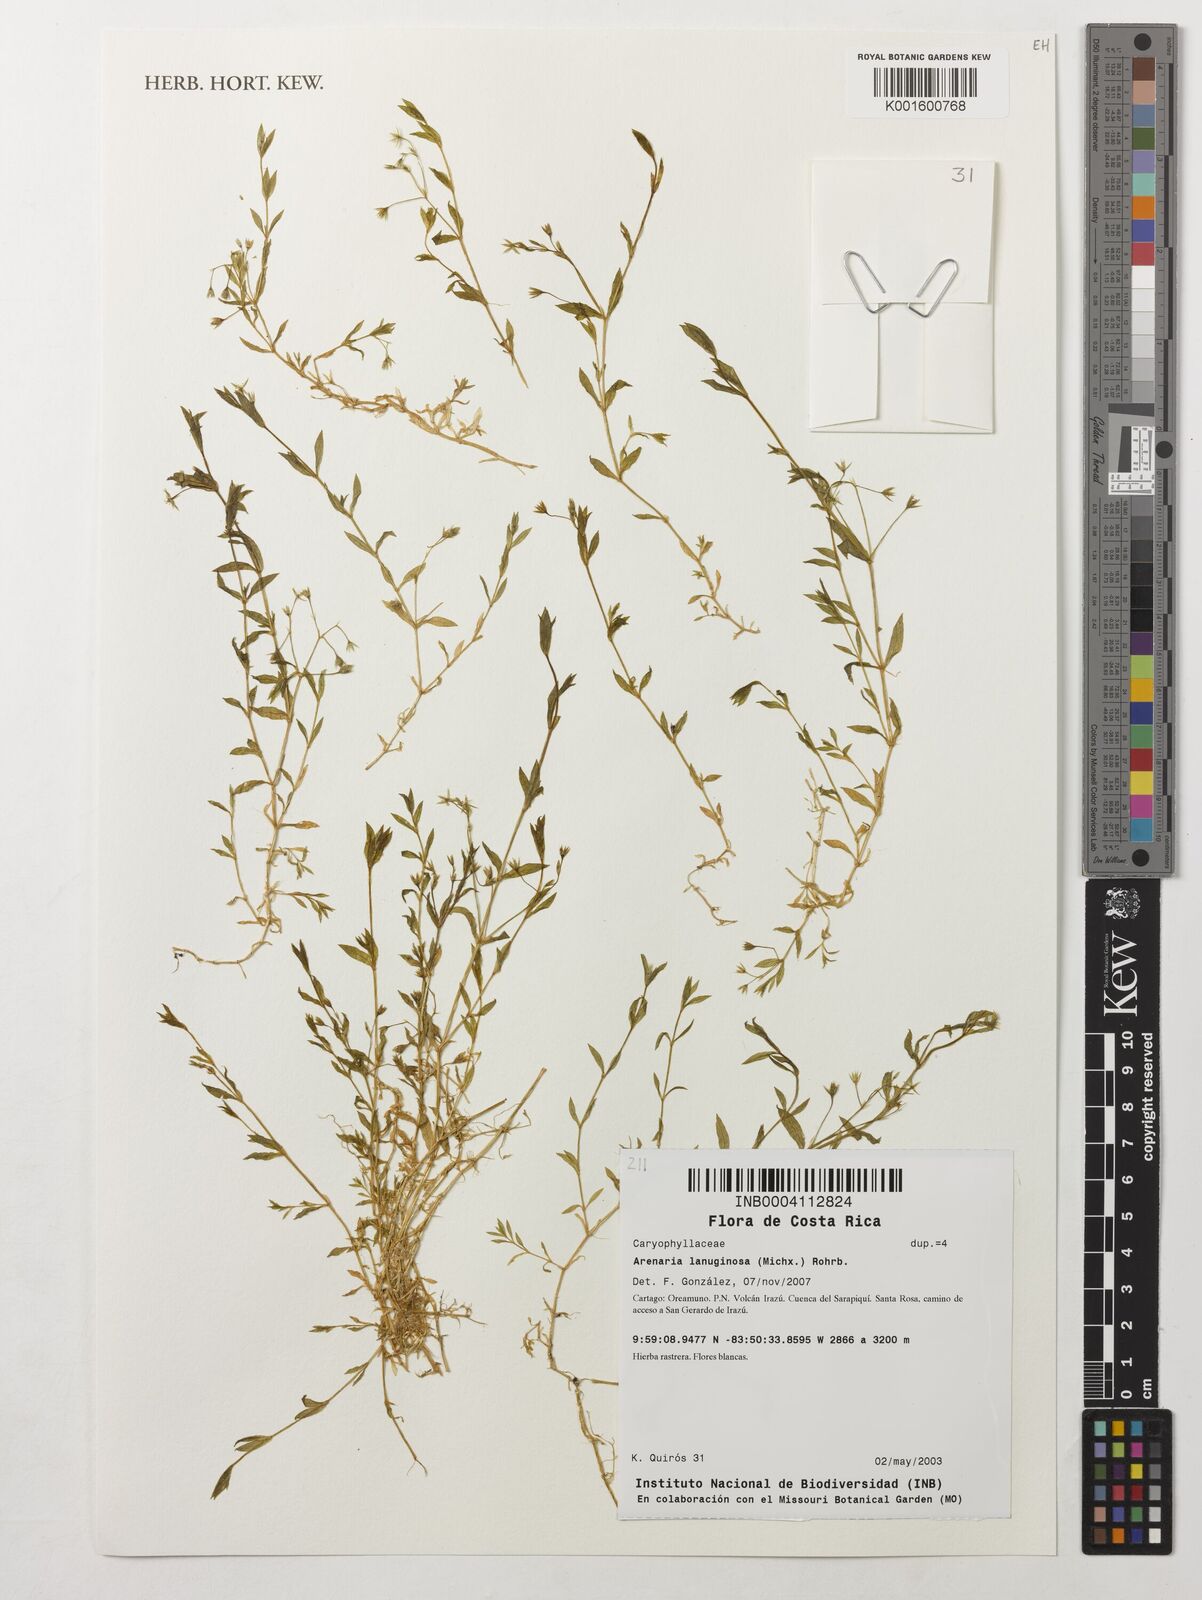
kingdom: Plantae
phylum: Tracheophyta
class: Magnoliopsida
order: Caryophyllales
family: Caryophyllaceae
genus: Arenaria
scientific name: Arenaria lanuginosa
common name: Spread sandwort
